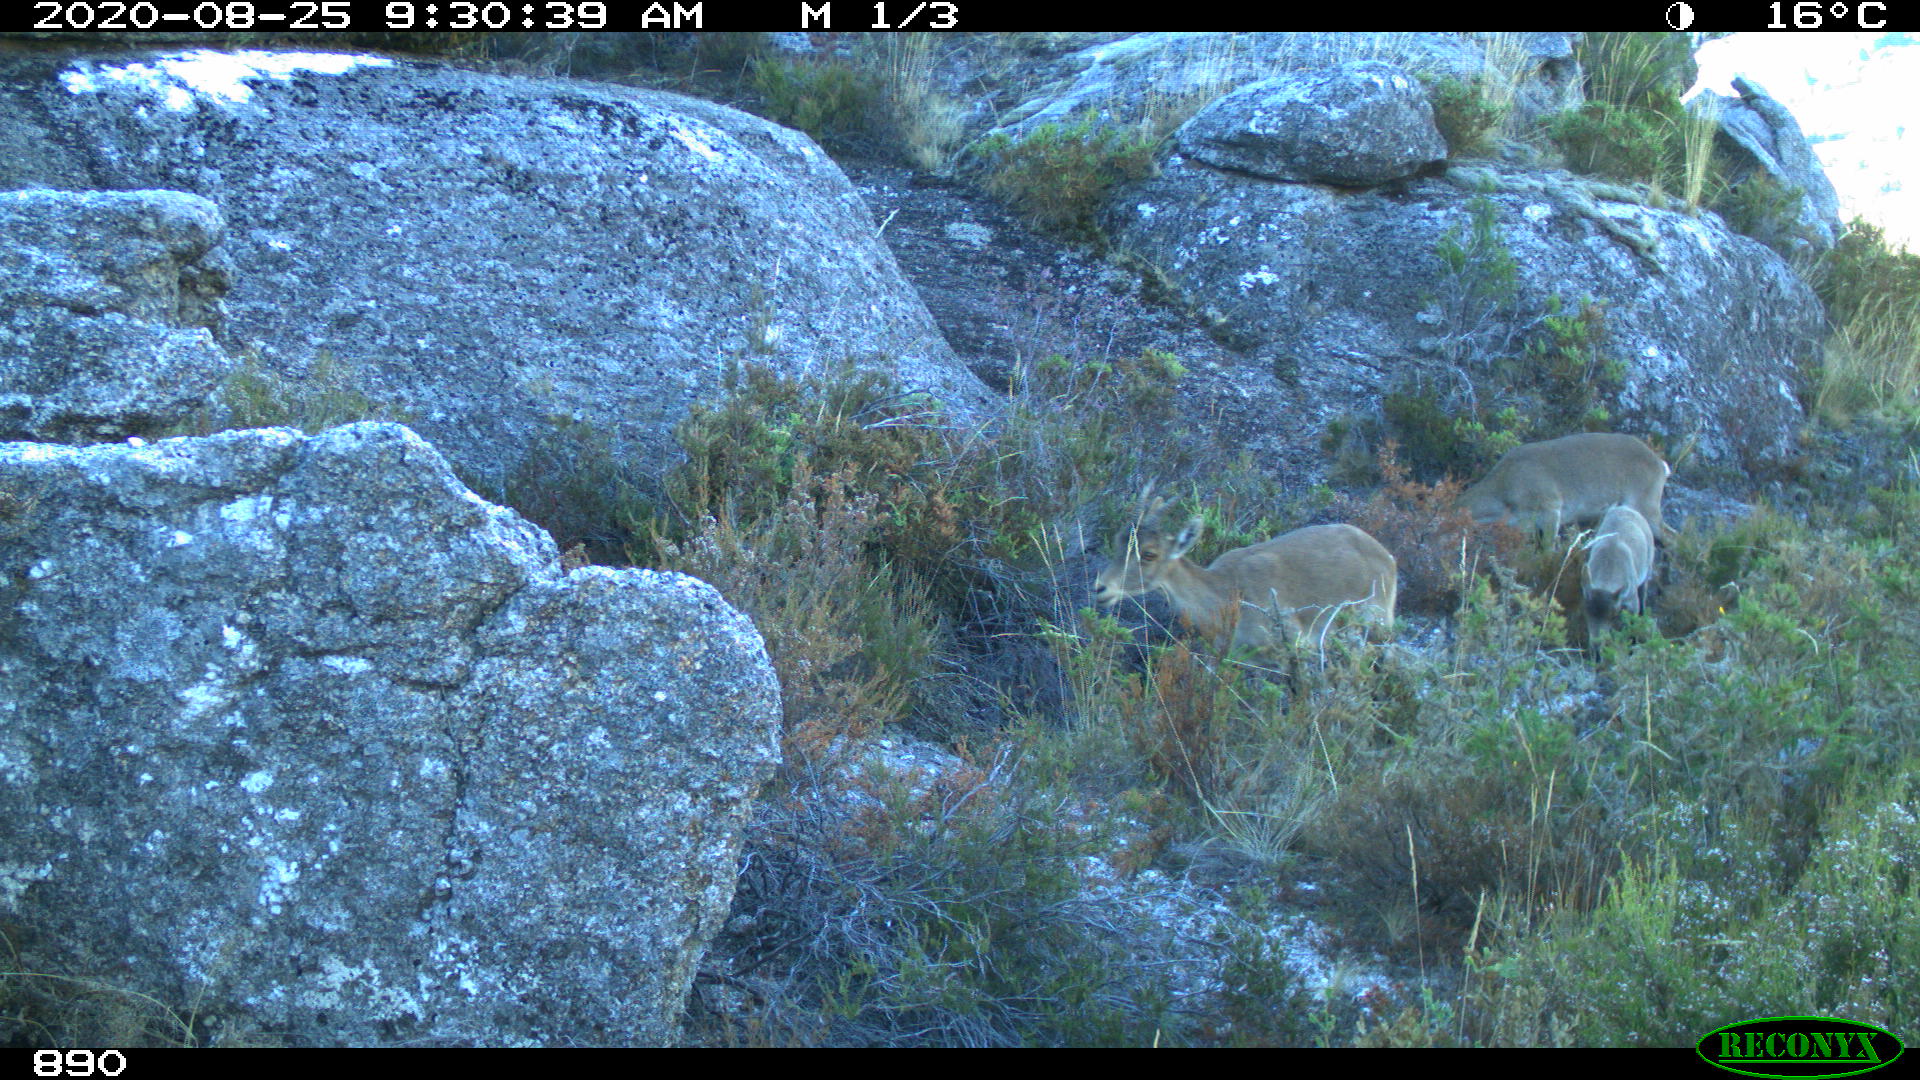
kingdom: Animalia
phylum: Chordata
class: Mammalia
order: Artiodactyla
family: Bovidae
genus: Capra
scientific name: Capra pyrenaica
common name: Spanish ibex
